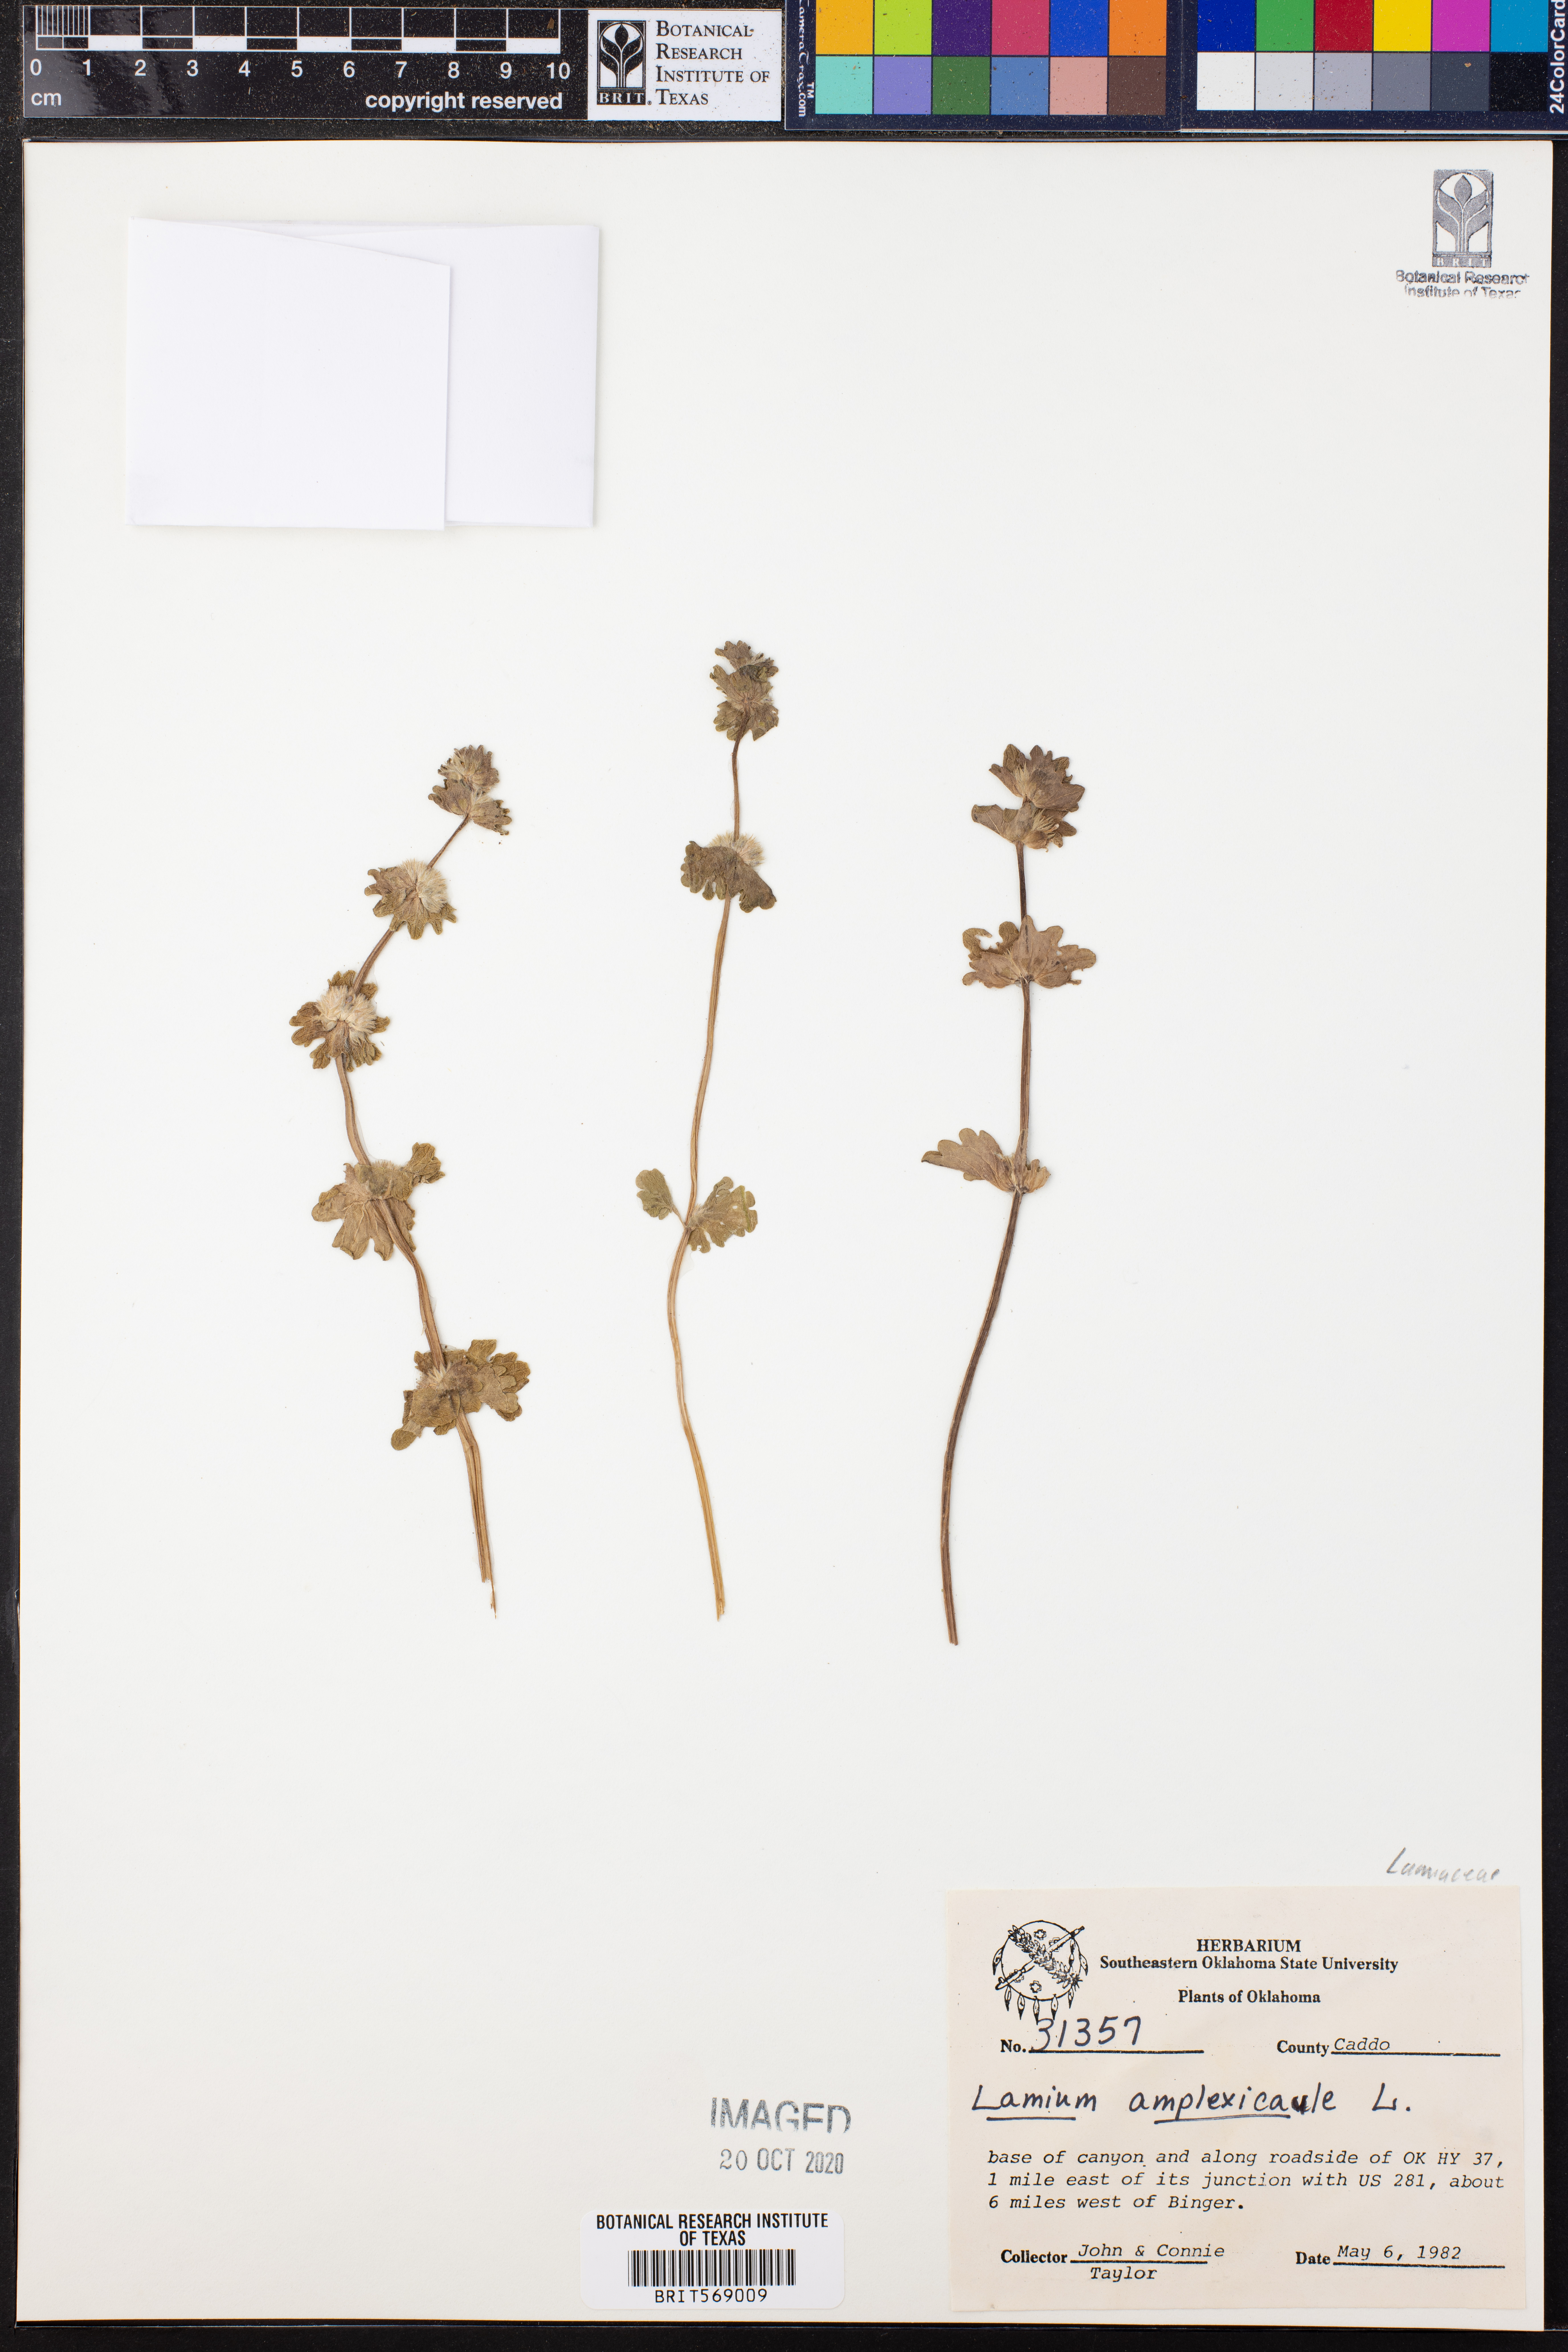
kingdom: Plantae
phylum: Tracheophyta
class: Magnoliopsida
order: Lamiales
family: Lamiaceae
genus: Lamium
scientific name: Lamium amplexicaule
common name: Henbit dead-nettle
